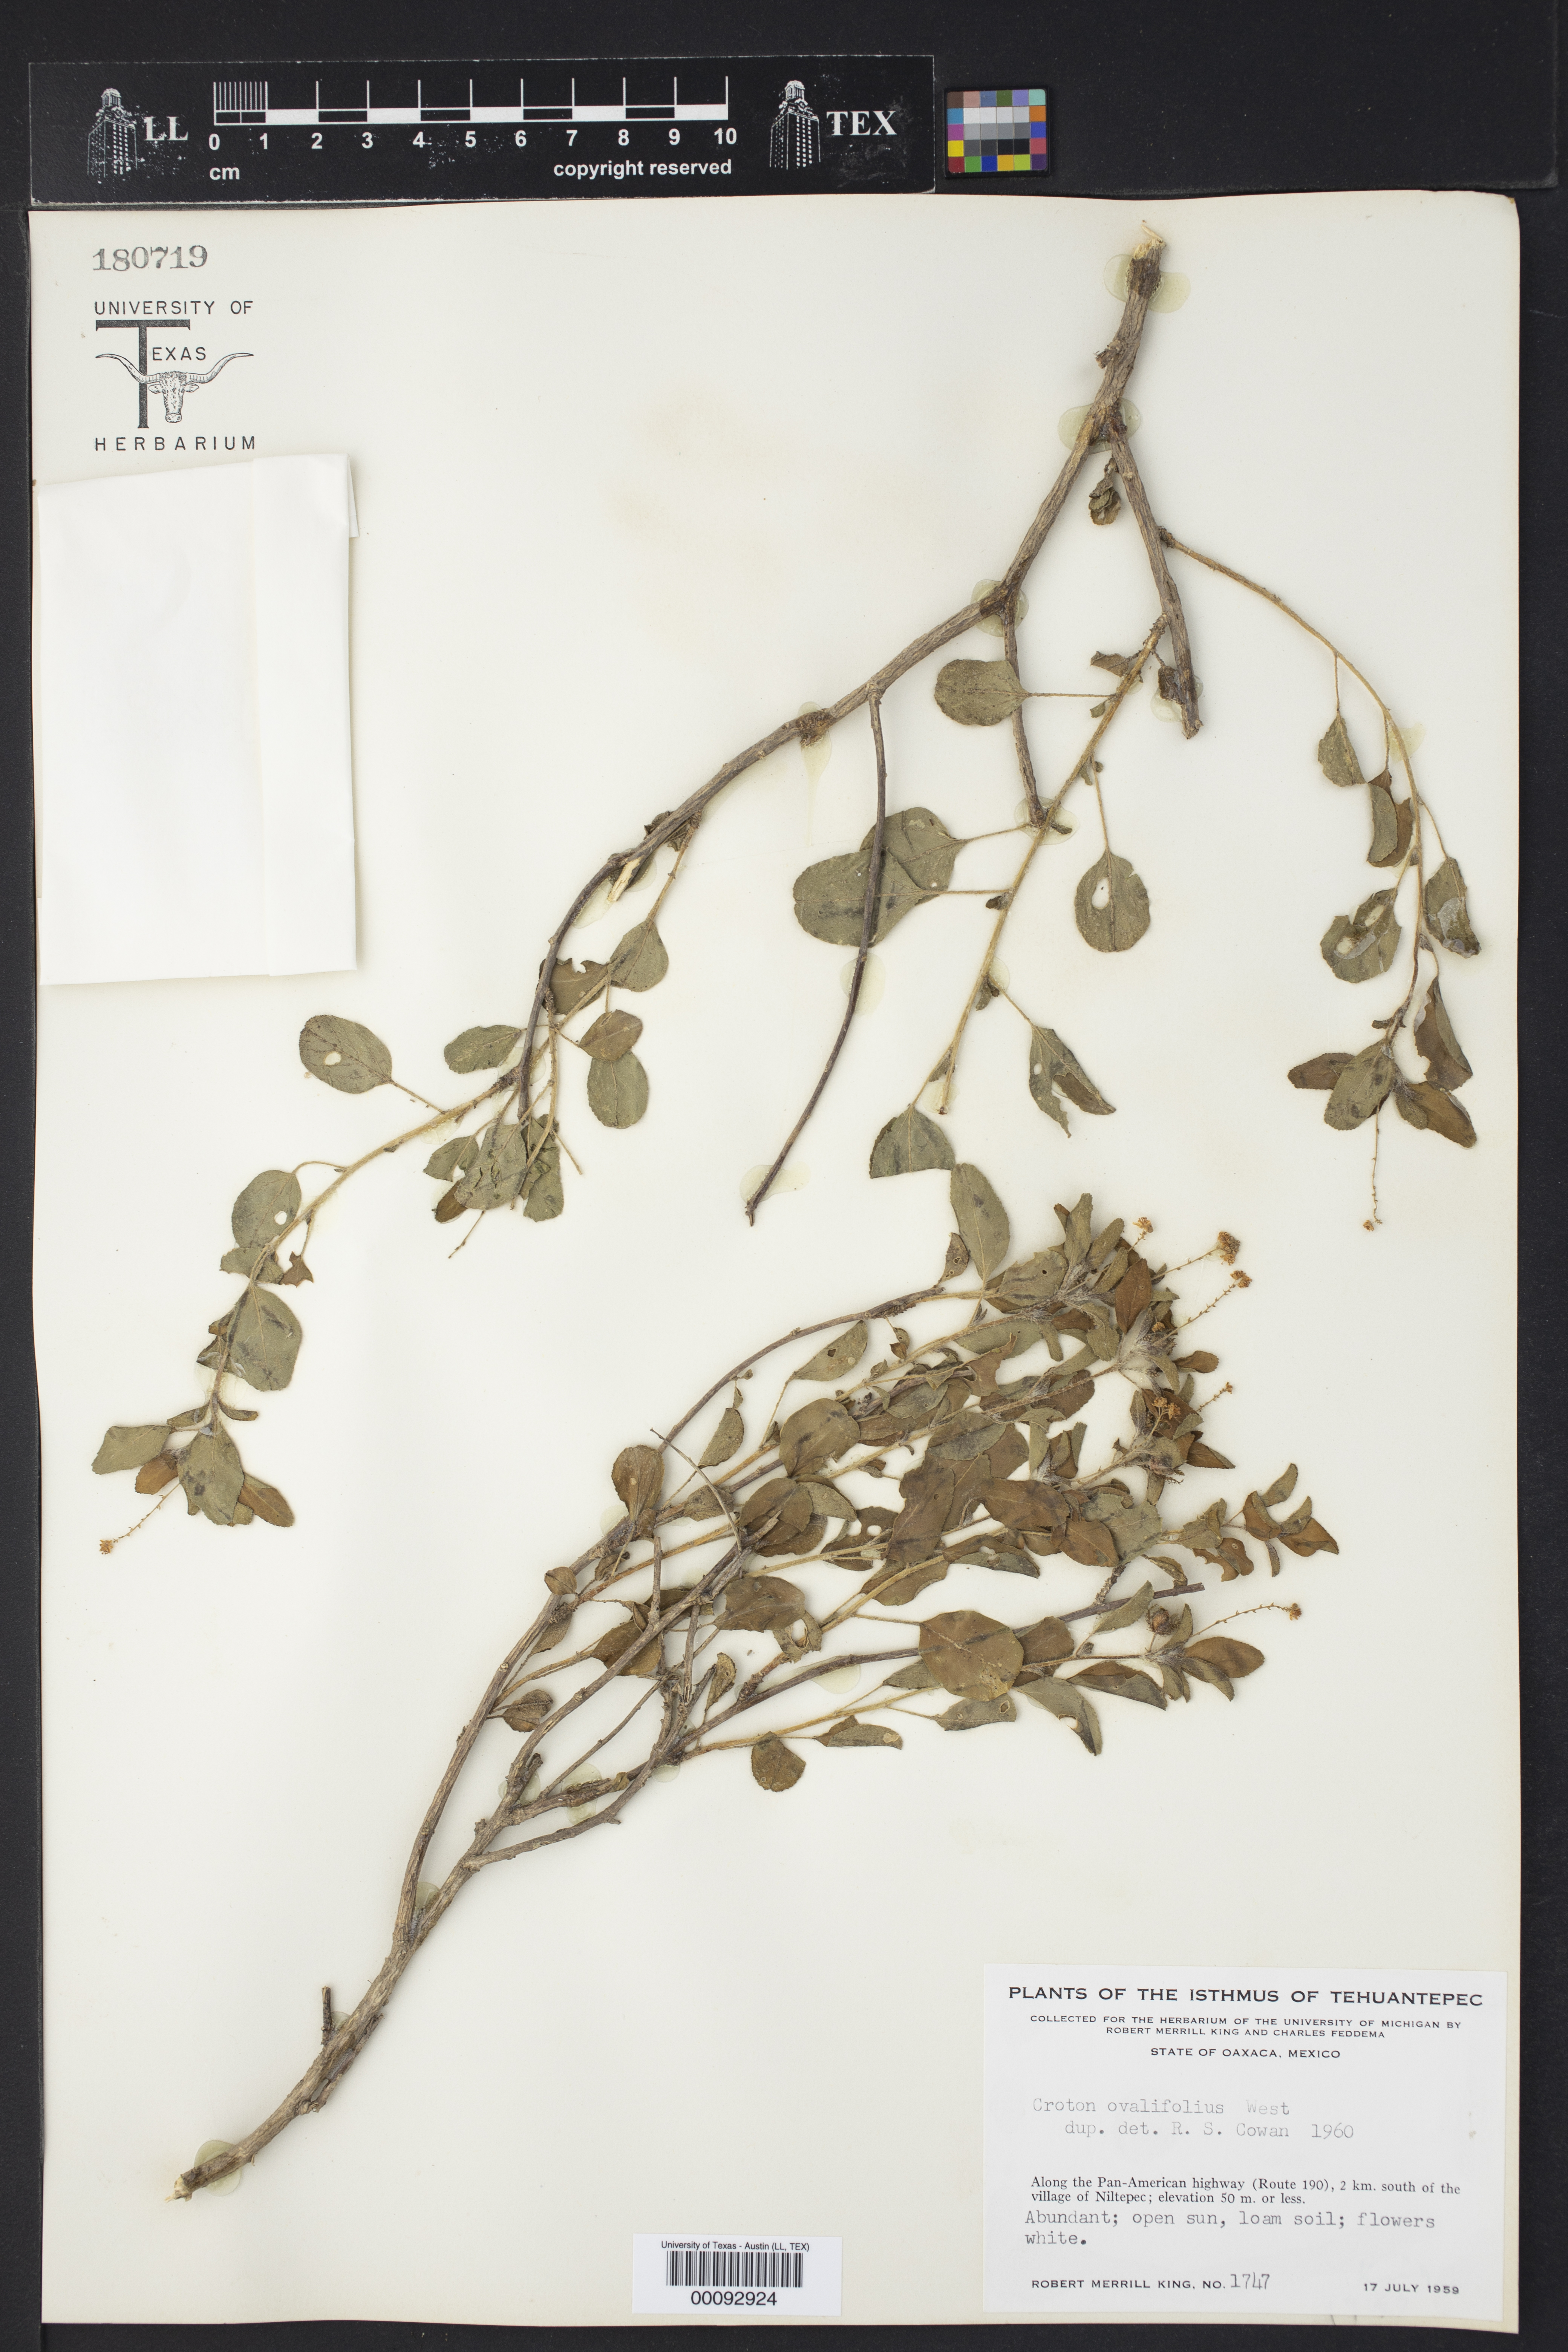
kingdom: Plantae
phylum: Tracheophyta
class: Magnoliopsida
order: Malpighiales
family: Euphorbiaceae
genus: Croton
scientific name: Croton ovalifolius
